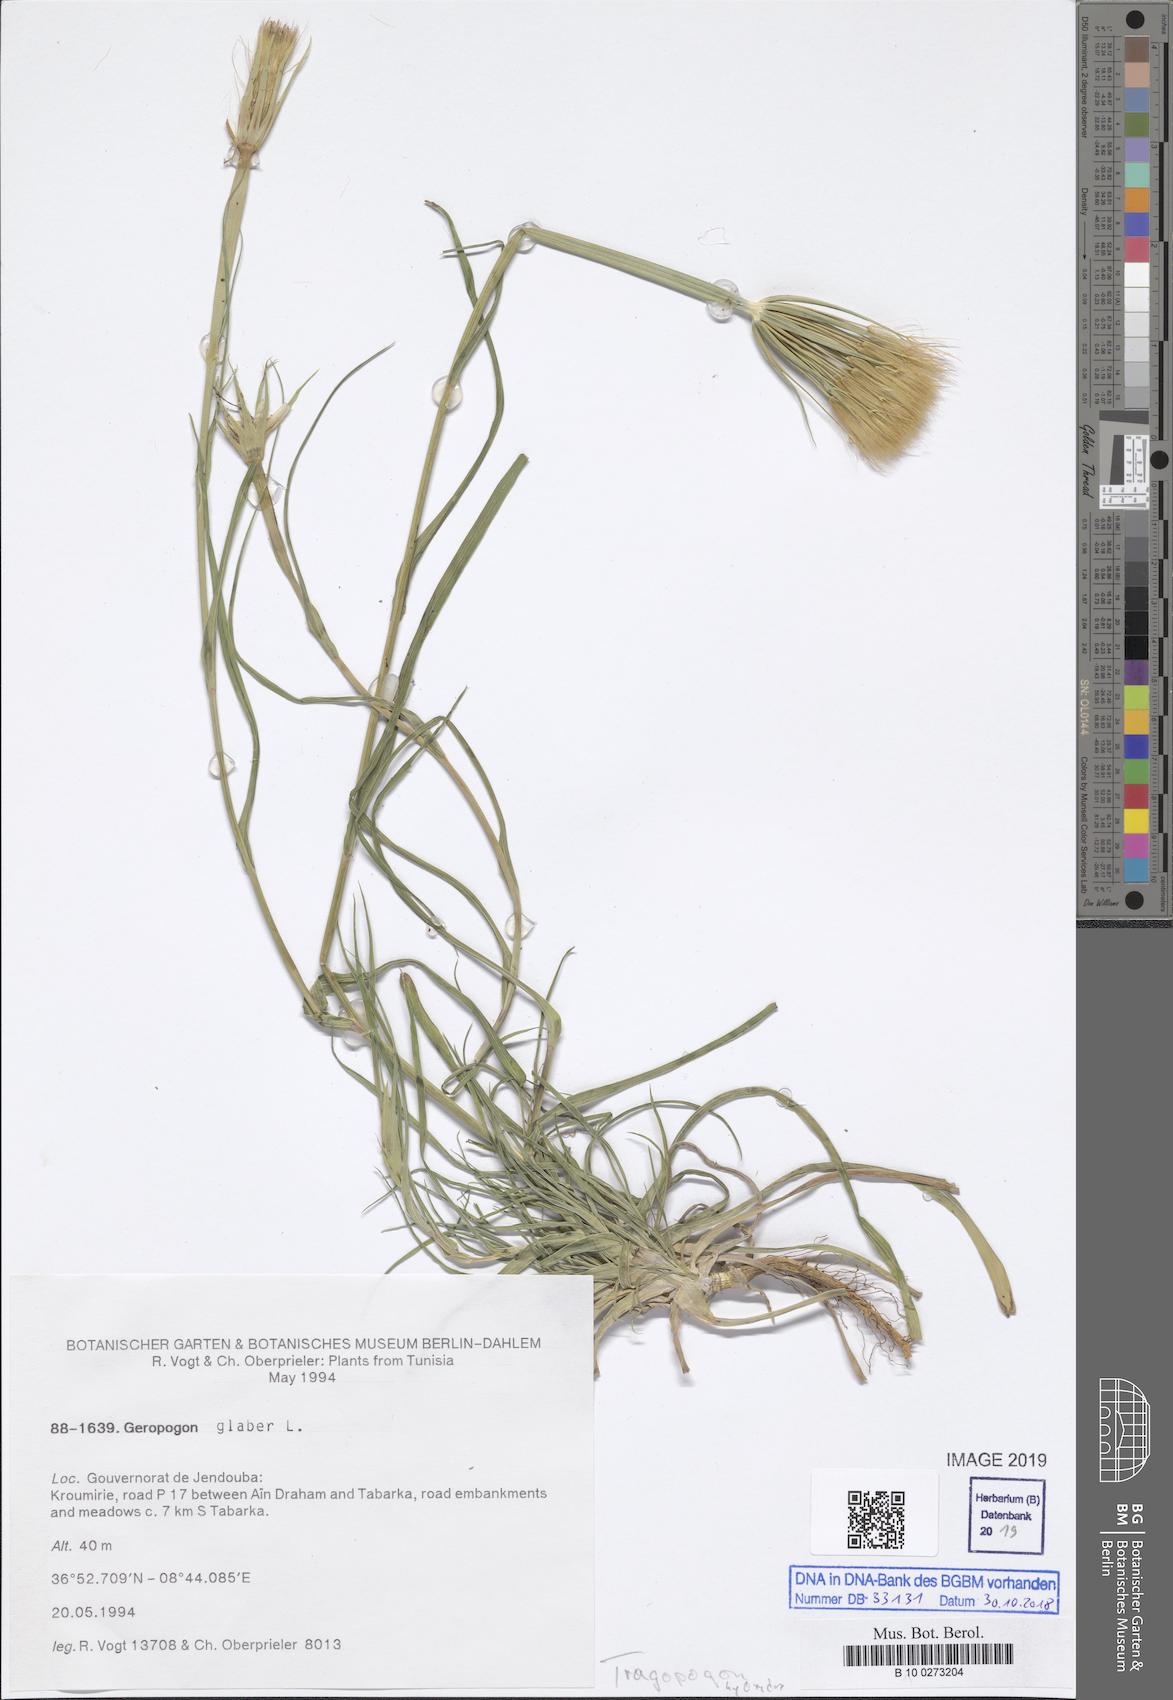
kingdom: Plantae
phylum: Tracheophyta
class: Magnoliopsida
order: Asterales
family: Asteraceae
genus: Geropogon
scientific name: Geropogon hybridus
